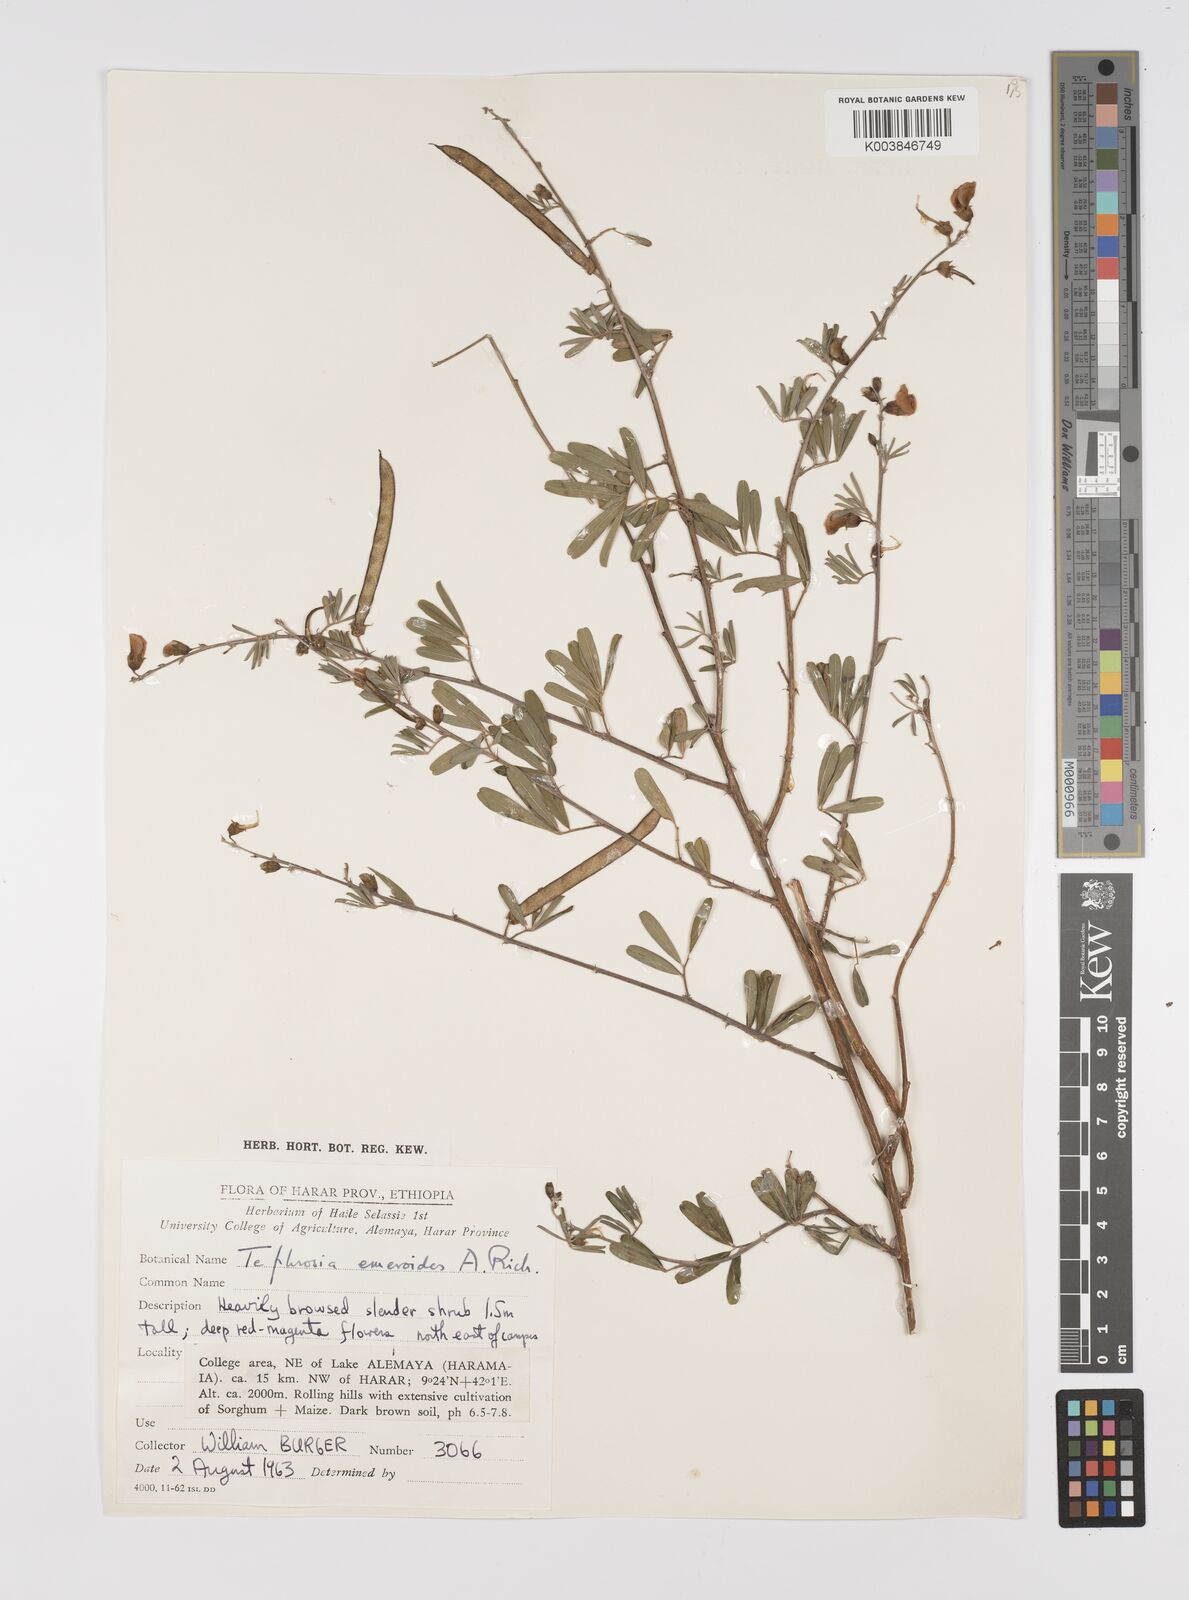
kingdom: Plantae
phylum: Tracheophyta
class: Magnoliopsida
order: Fabales
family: Fabaceae
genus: Tephrosia
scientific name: Tephrosia emeroides
